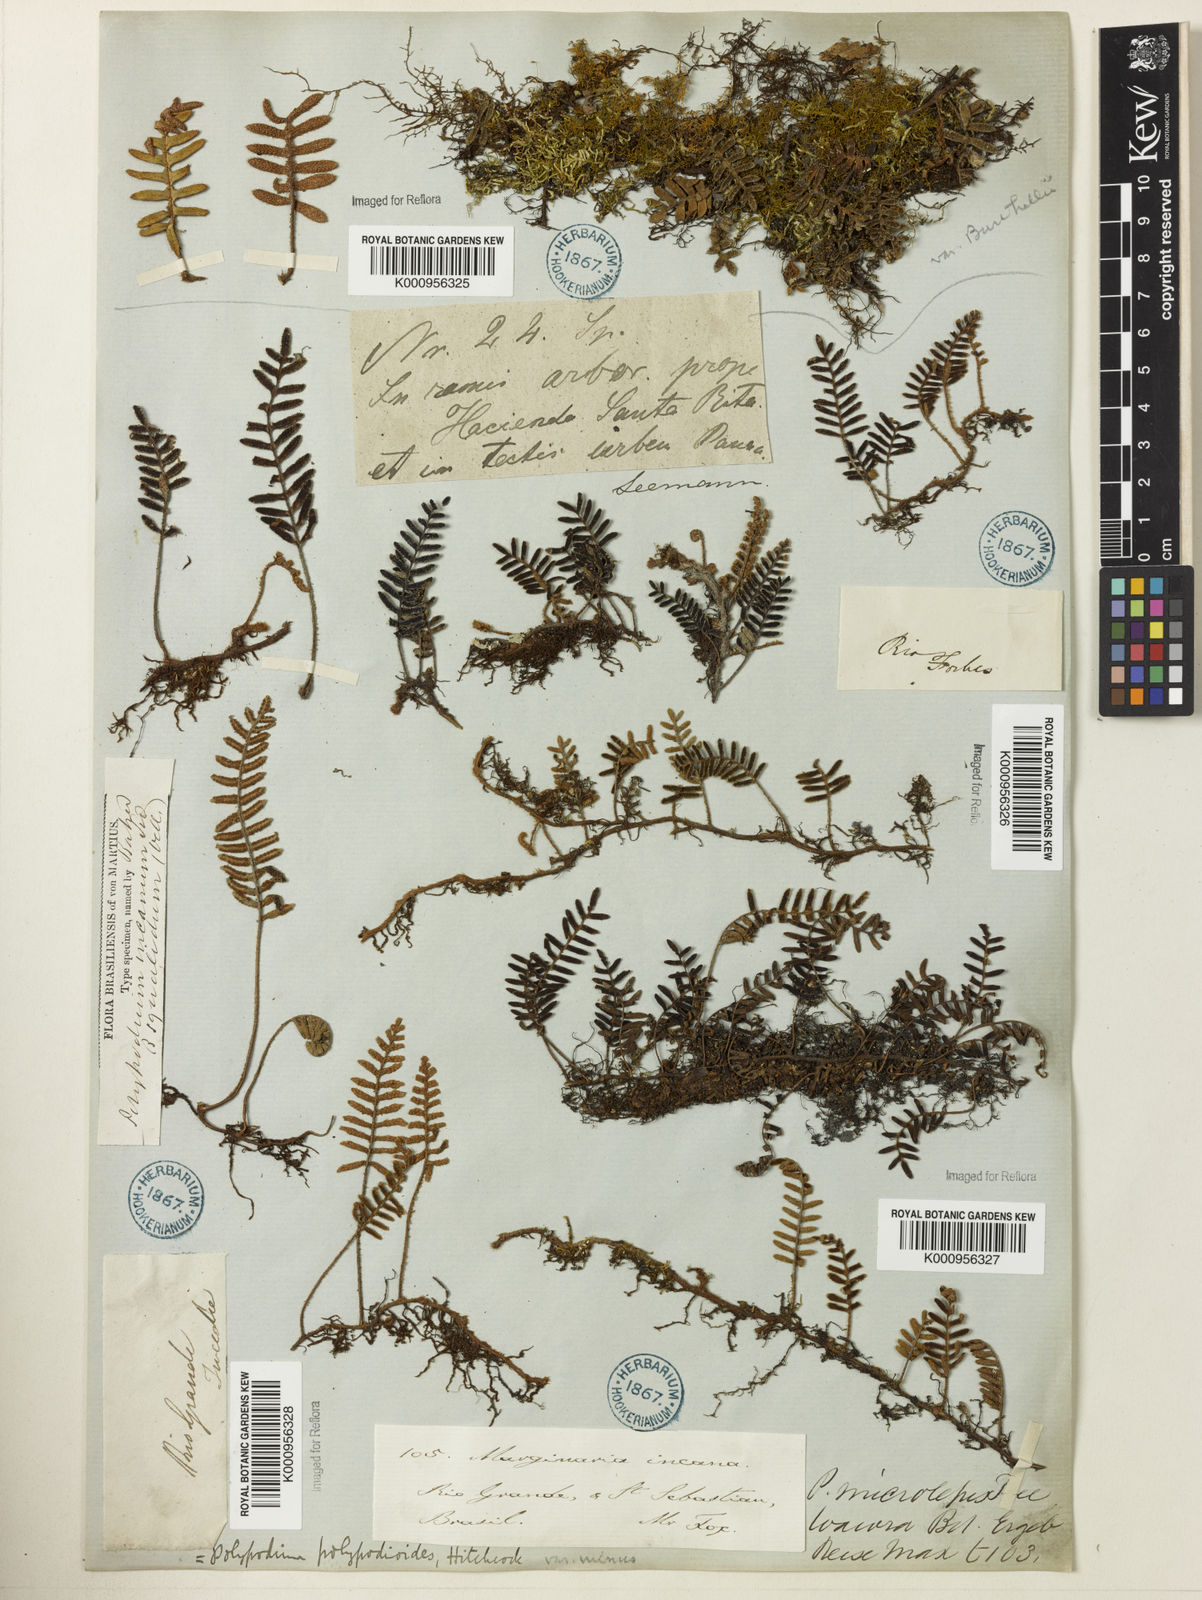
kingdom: Plantae
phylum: Tracheophyta
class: Polypodiopsida
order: Polypodiales
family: Polypodiaceae
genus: Pleopeltis
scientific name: Pleopeltis polypodioides
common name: Resurrection fern
